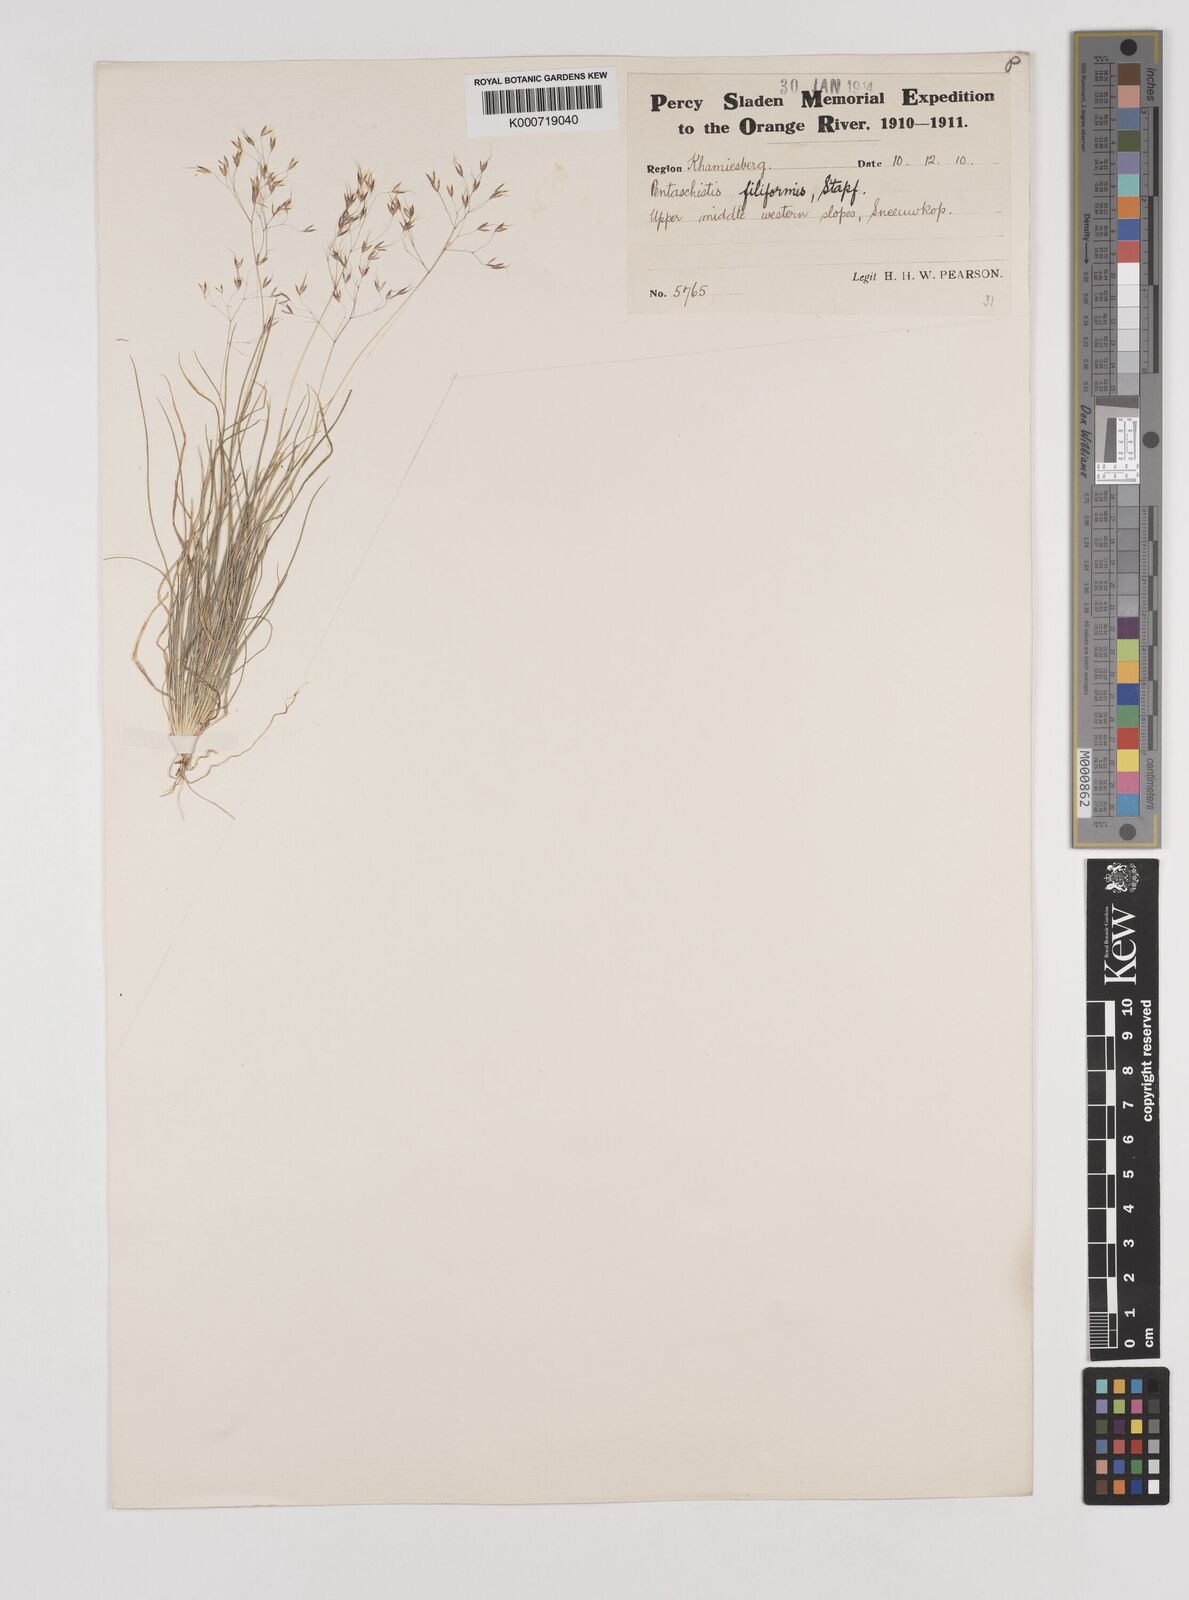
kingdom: Plantae
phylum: Tracheophyta
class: Liliopsida
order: Poales
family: Poaceae
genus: Pentameris
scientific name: Pentameris pallida
